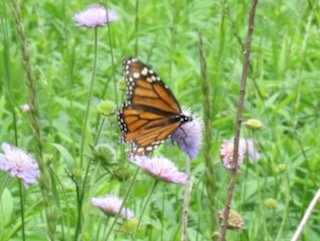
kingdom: Animalia
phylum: Arthropoda
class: Insecta
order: Lepidoptera
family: Nymphalidae
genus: Danaus
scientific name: Danaus plexippus
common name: Monarch
